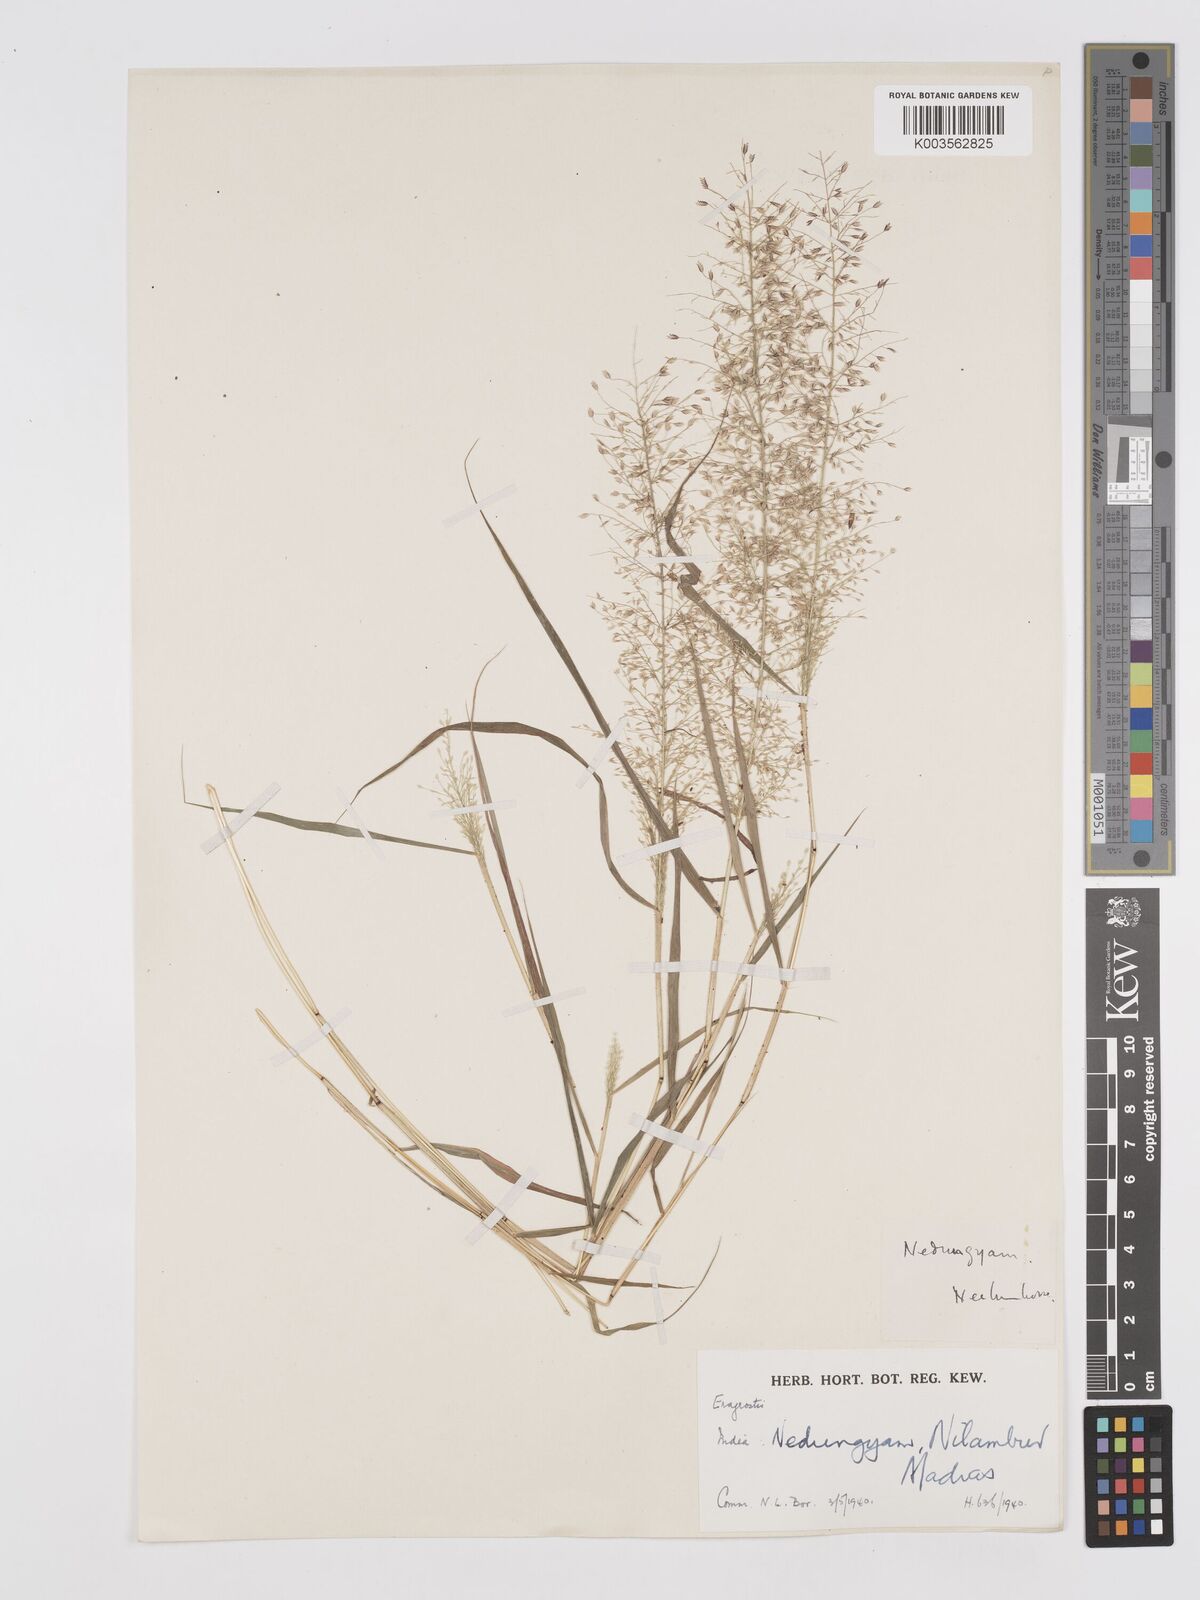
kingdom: Plantae
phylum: Tracheophyta
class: Liliopsida
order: Poales
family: Poaceae
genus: Eragrostis
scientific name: Eragrostis viscosa
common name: Sticky love grass
